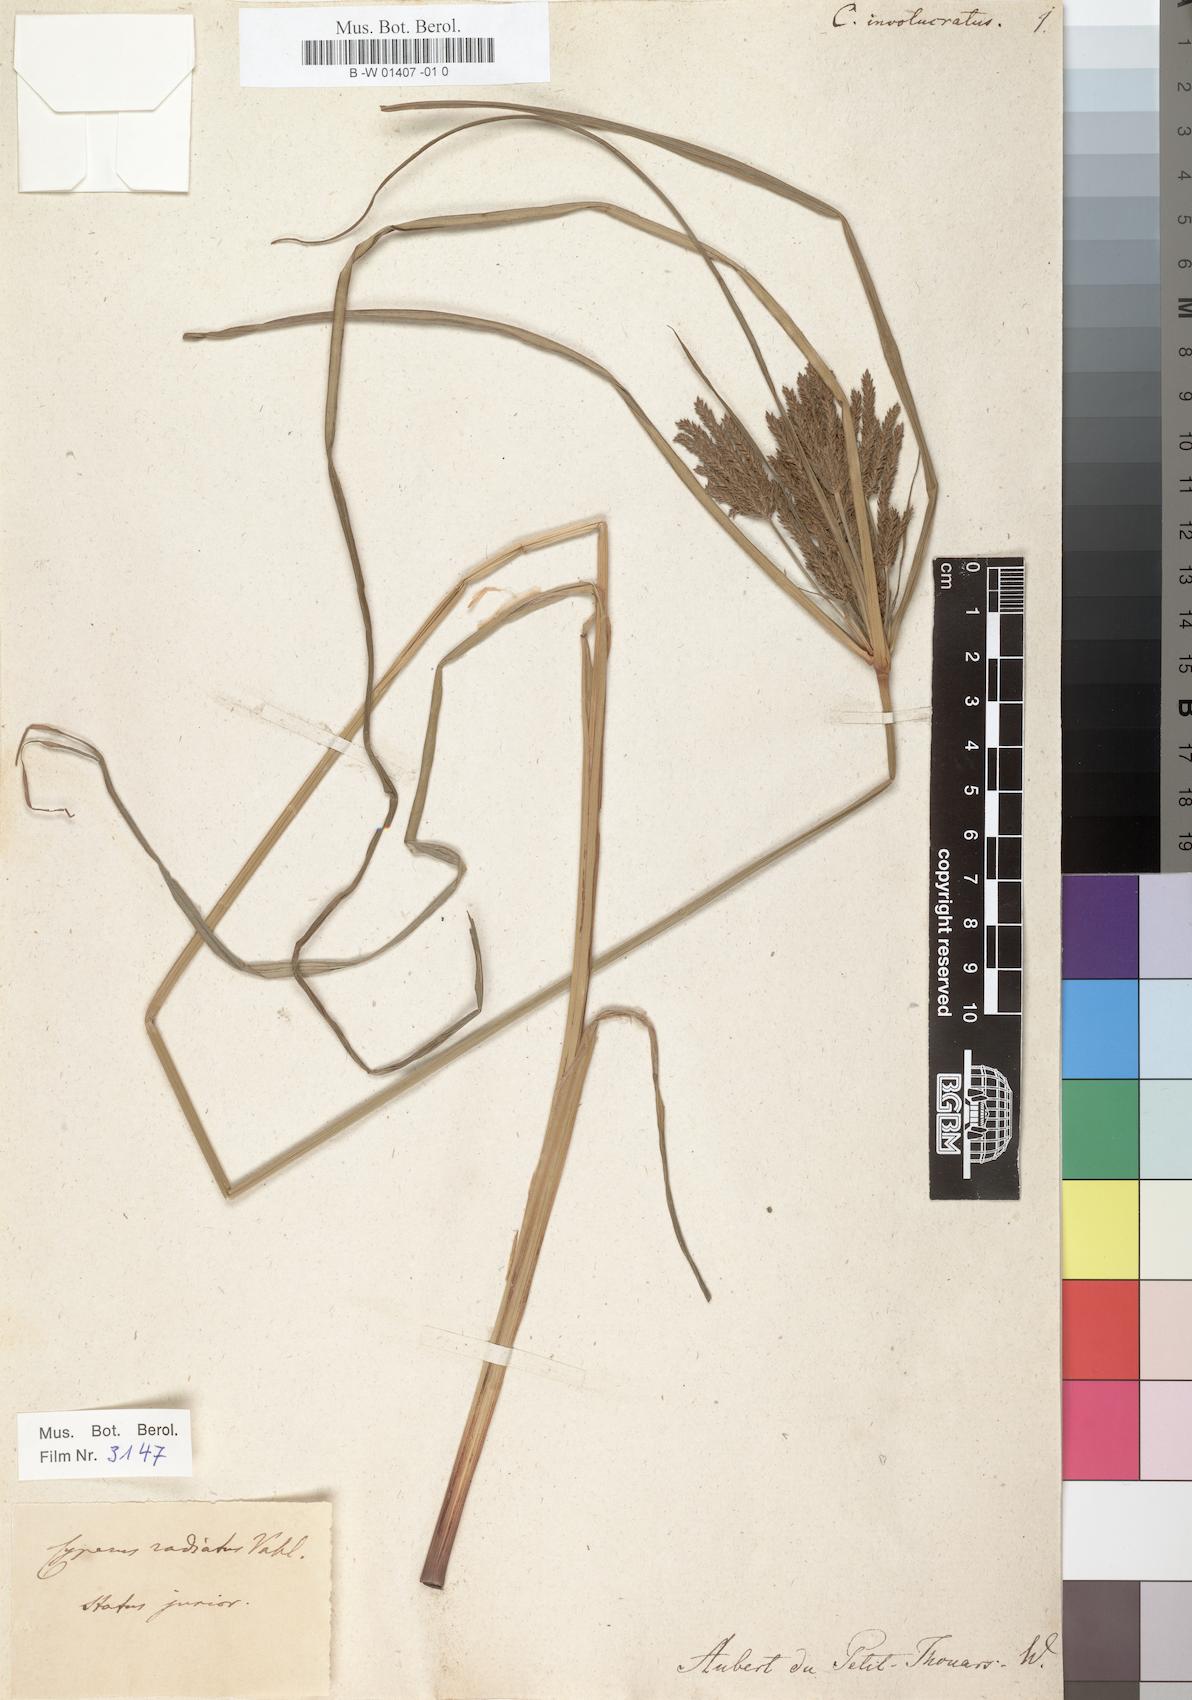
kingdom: Plantae
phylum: Tracheophyta
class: Liliopsida
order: Poales
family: Cyperaceae
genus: Cyperus
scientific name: Cyperus
